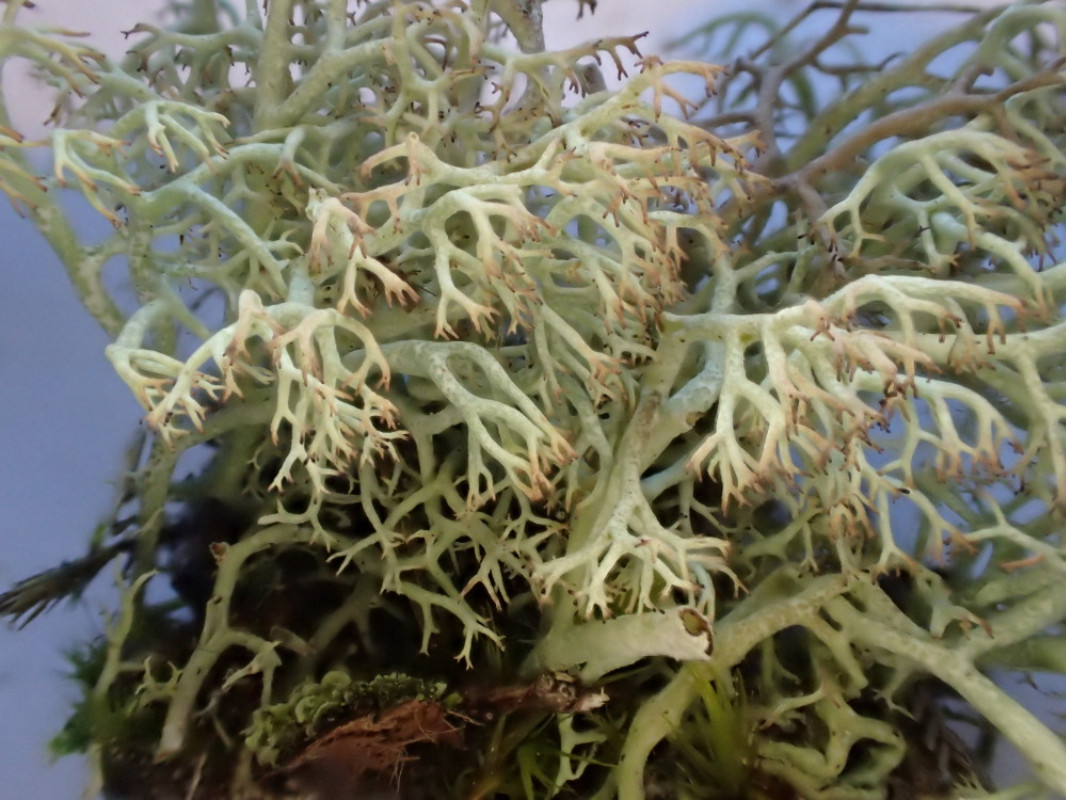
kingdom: Fungi
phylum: Ascomycota
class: Lecanoromycetes
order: Lecanorales
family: Cladoniaceae
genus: Cladonia
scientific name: Cladonia ciliata
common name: spinkel rensdyrlav
